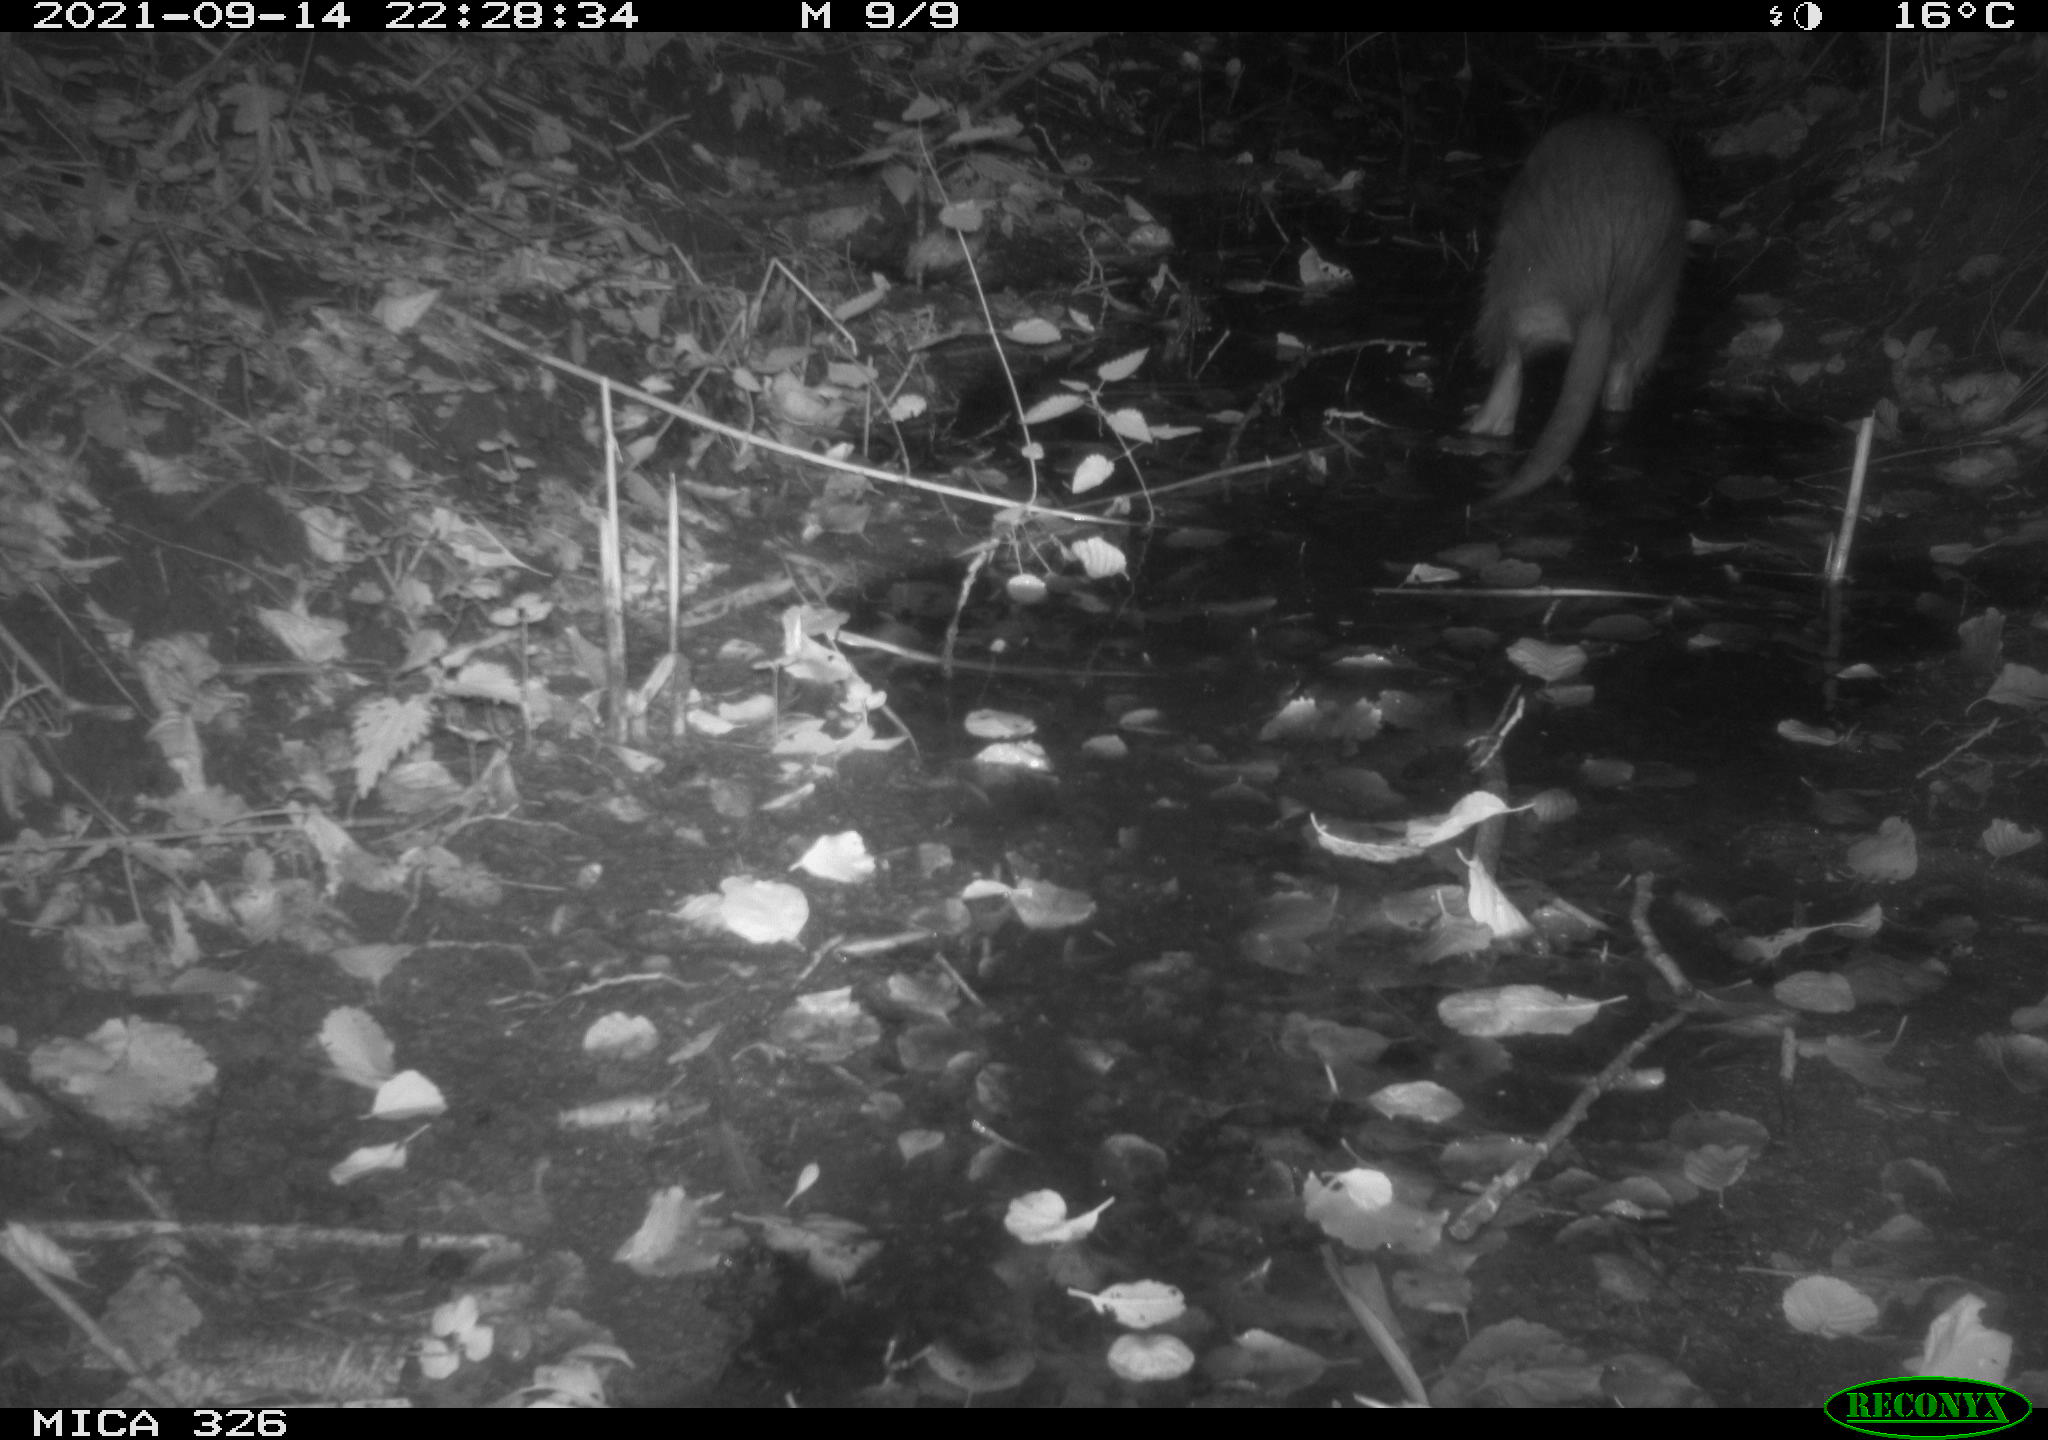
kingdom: Animalia
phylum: Chordata
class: Mammalia
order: Rodentia
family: Myocastoridae
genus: Myocastor
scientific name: Myocastor coypus
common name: Coypu
